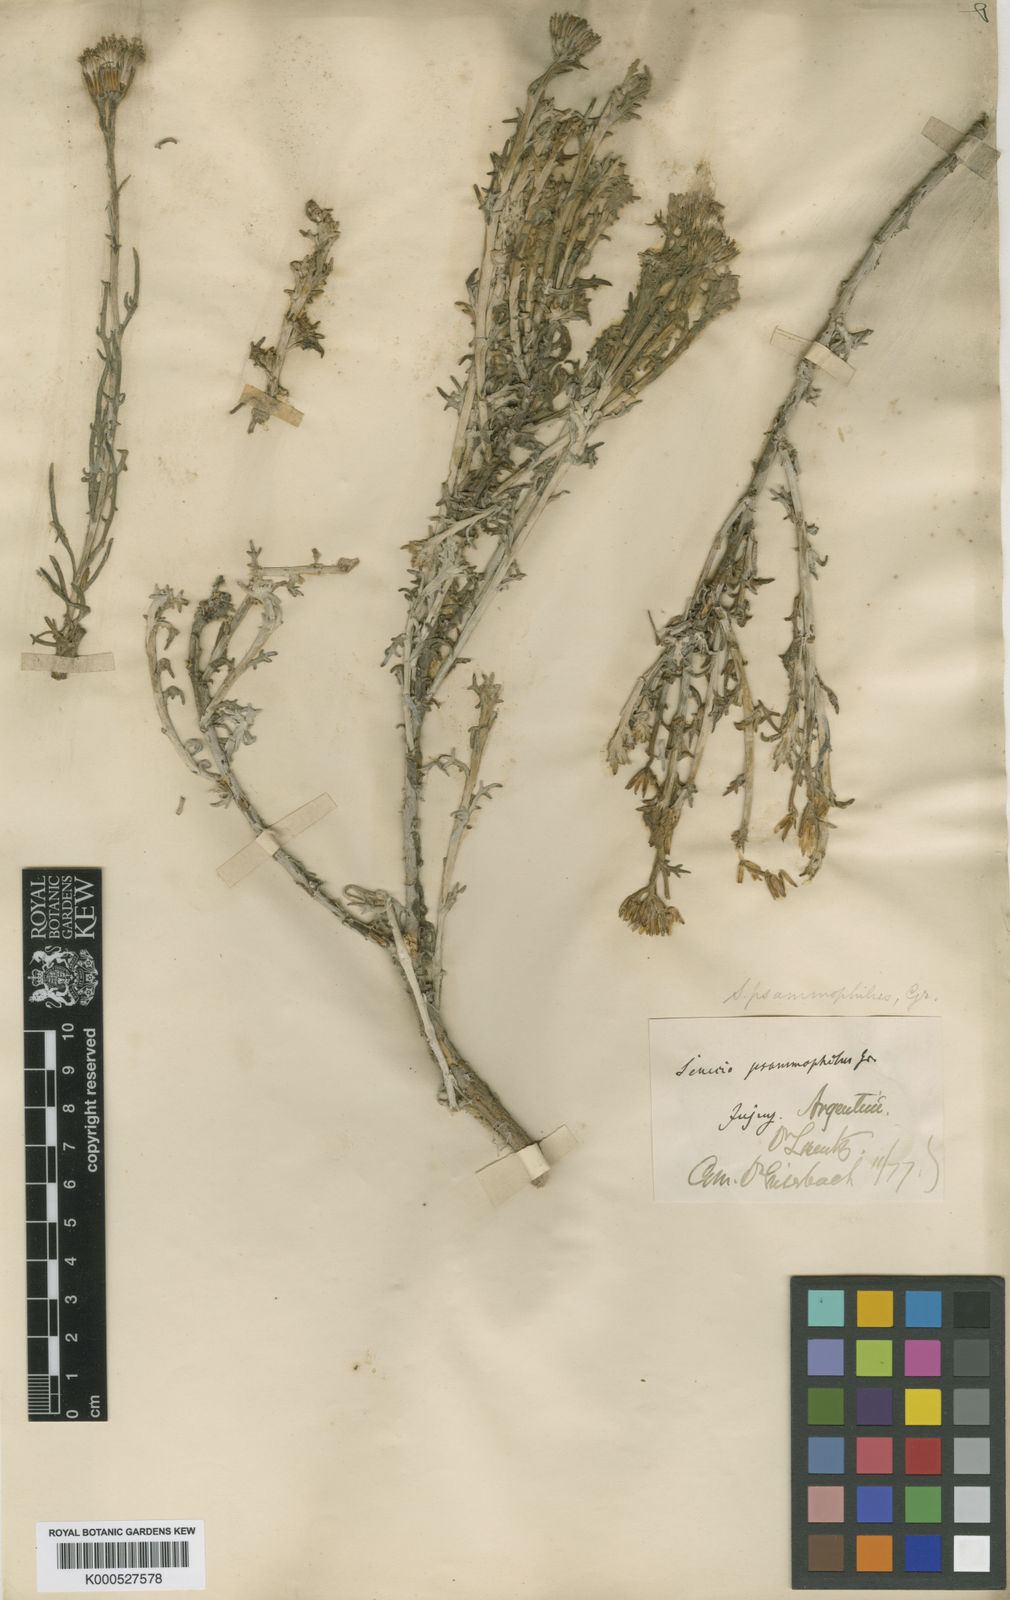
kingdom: Plantae
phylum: Tracheophyta
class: Magnoliopsida
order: Asterales
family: Asteraceae
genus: Senecio
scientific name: Senecio filaginoides
